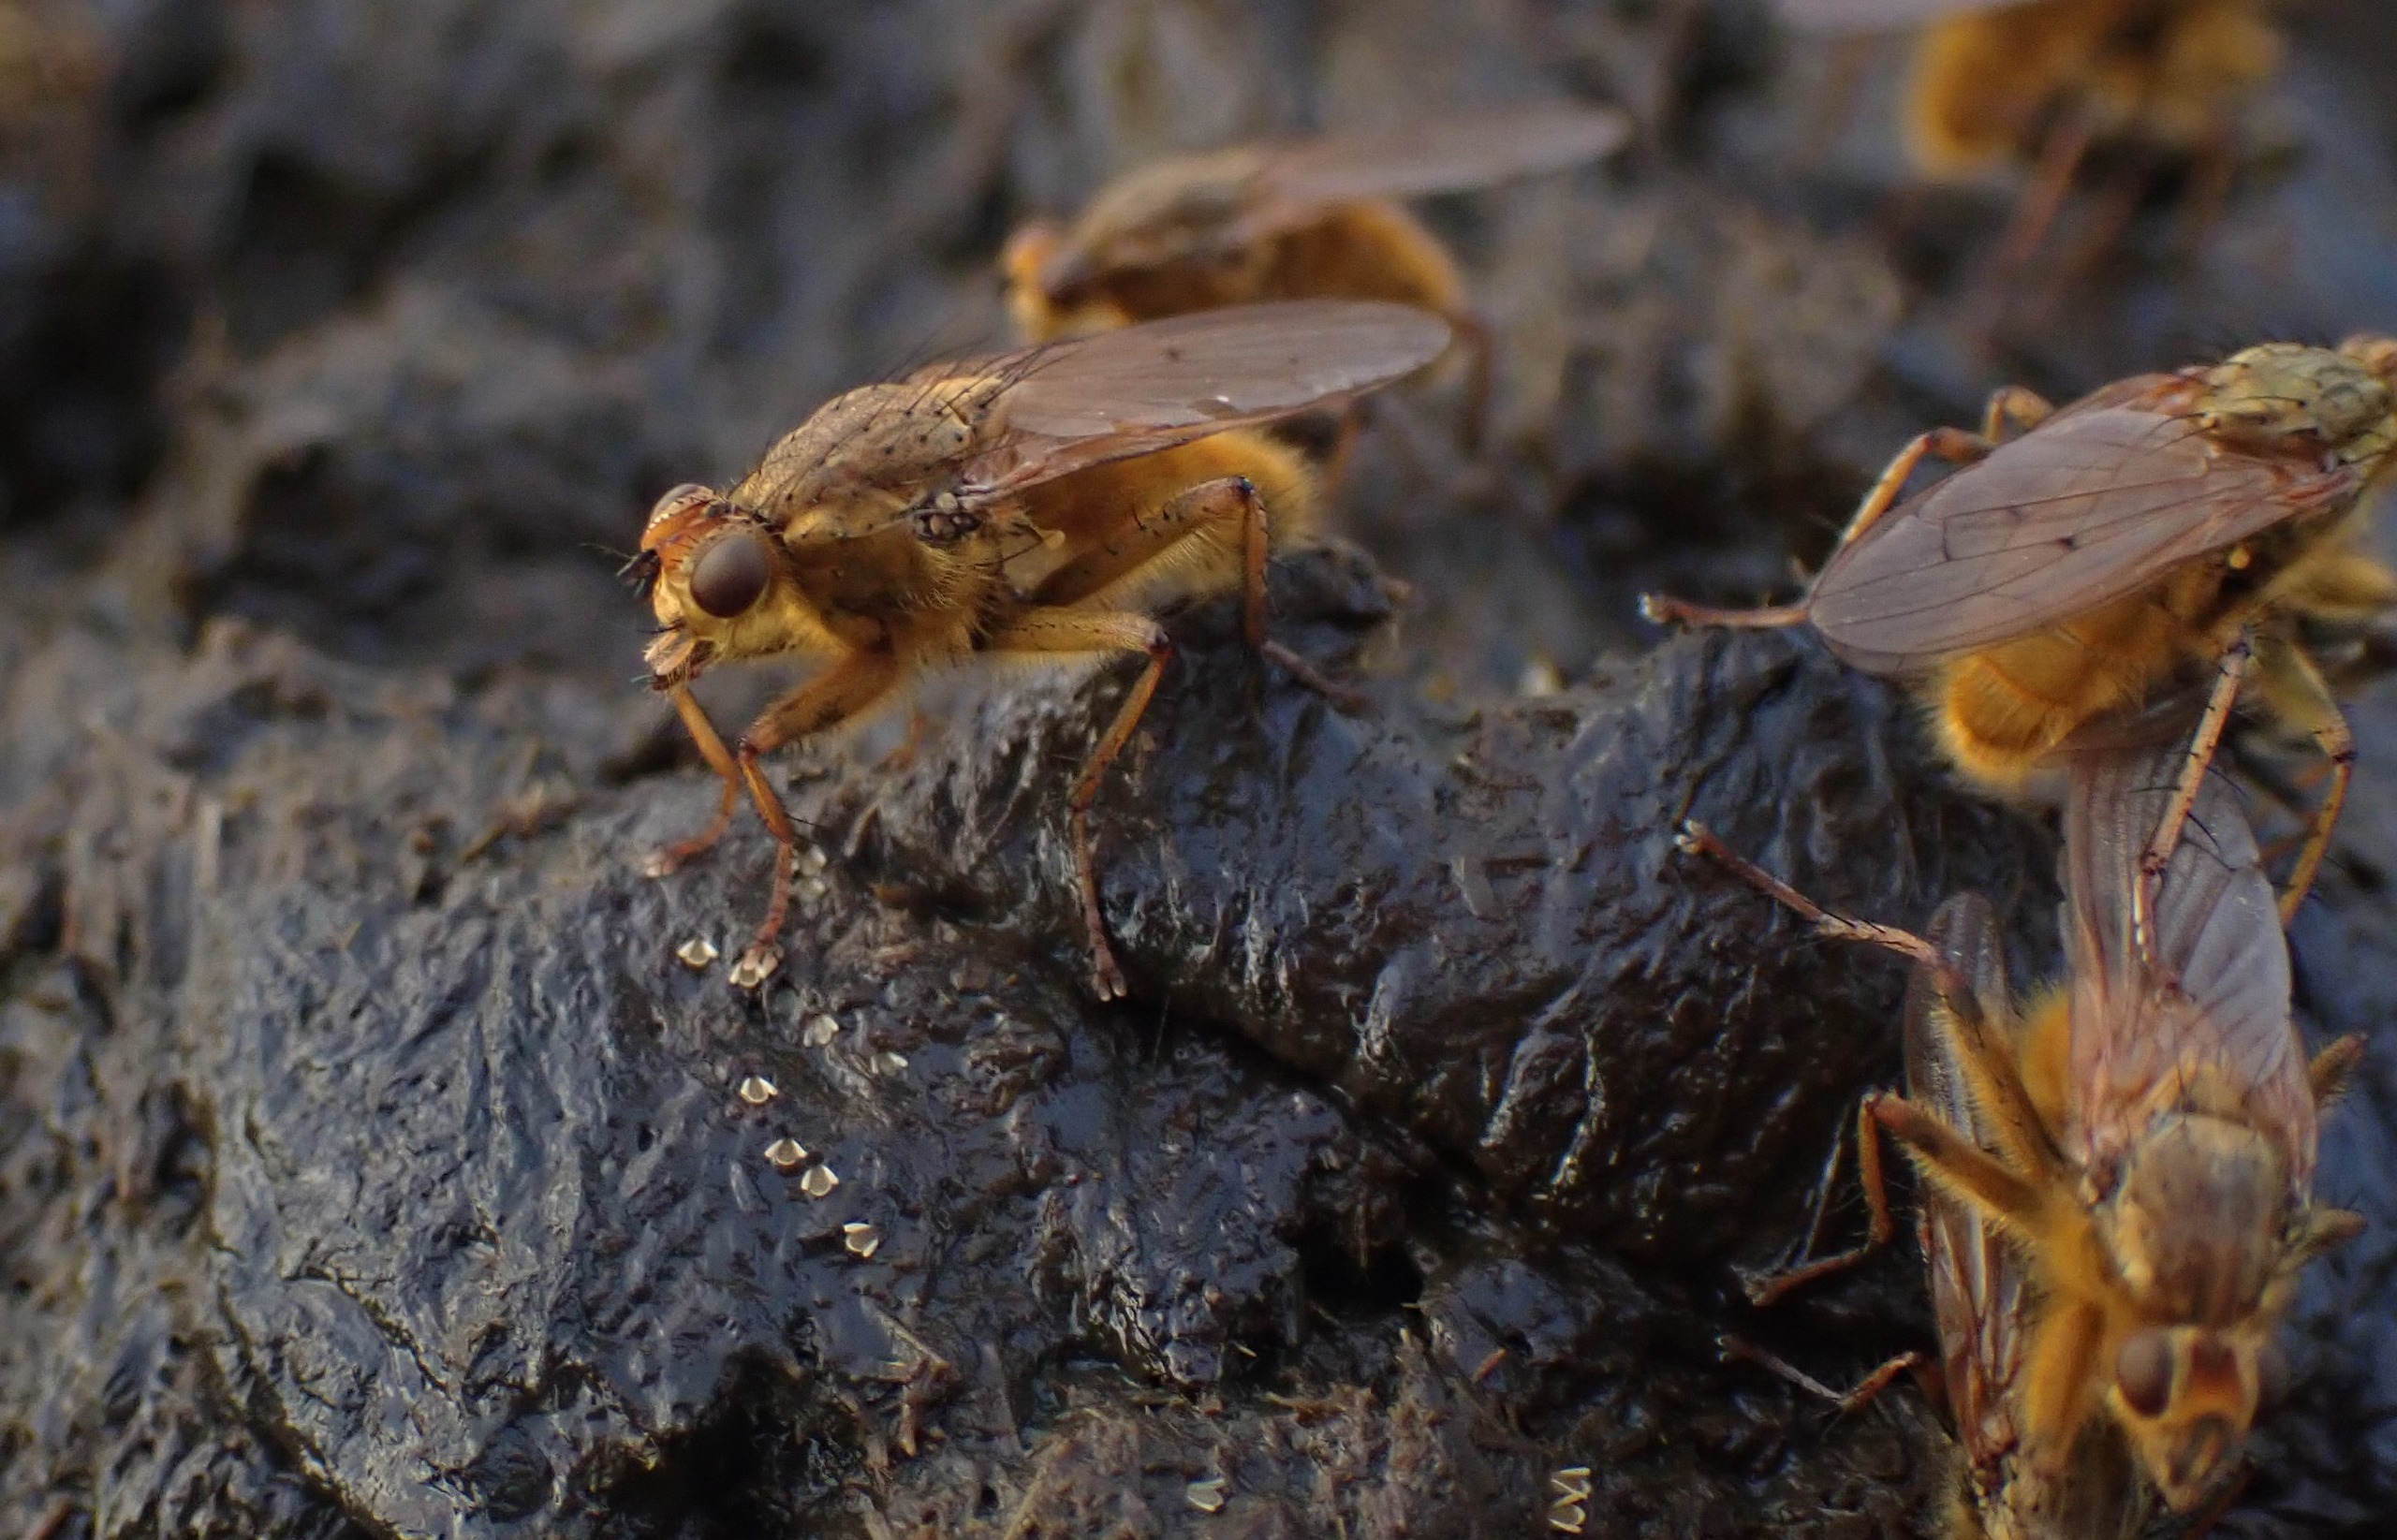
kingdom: Animalia
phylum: Arthropoda
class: Insecta
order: Diptera
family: Scathophagidae
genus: Scathophaga
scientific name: Scathophaga stercoraria
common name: Almindelig gødningsflue
